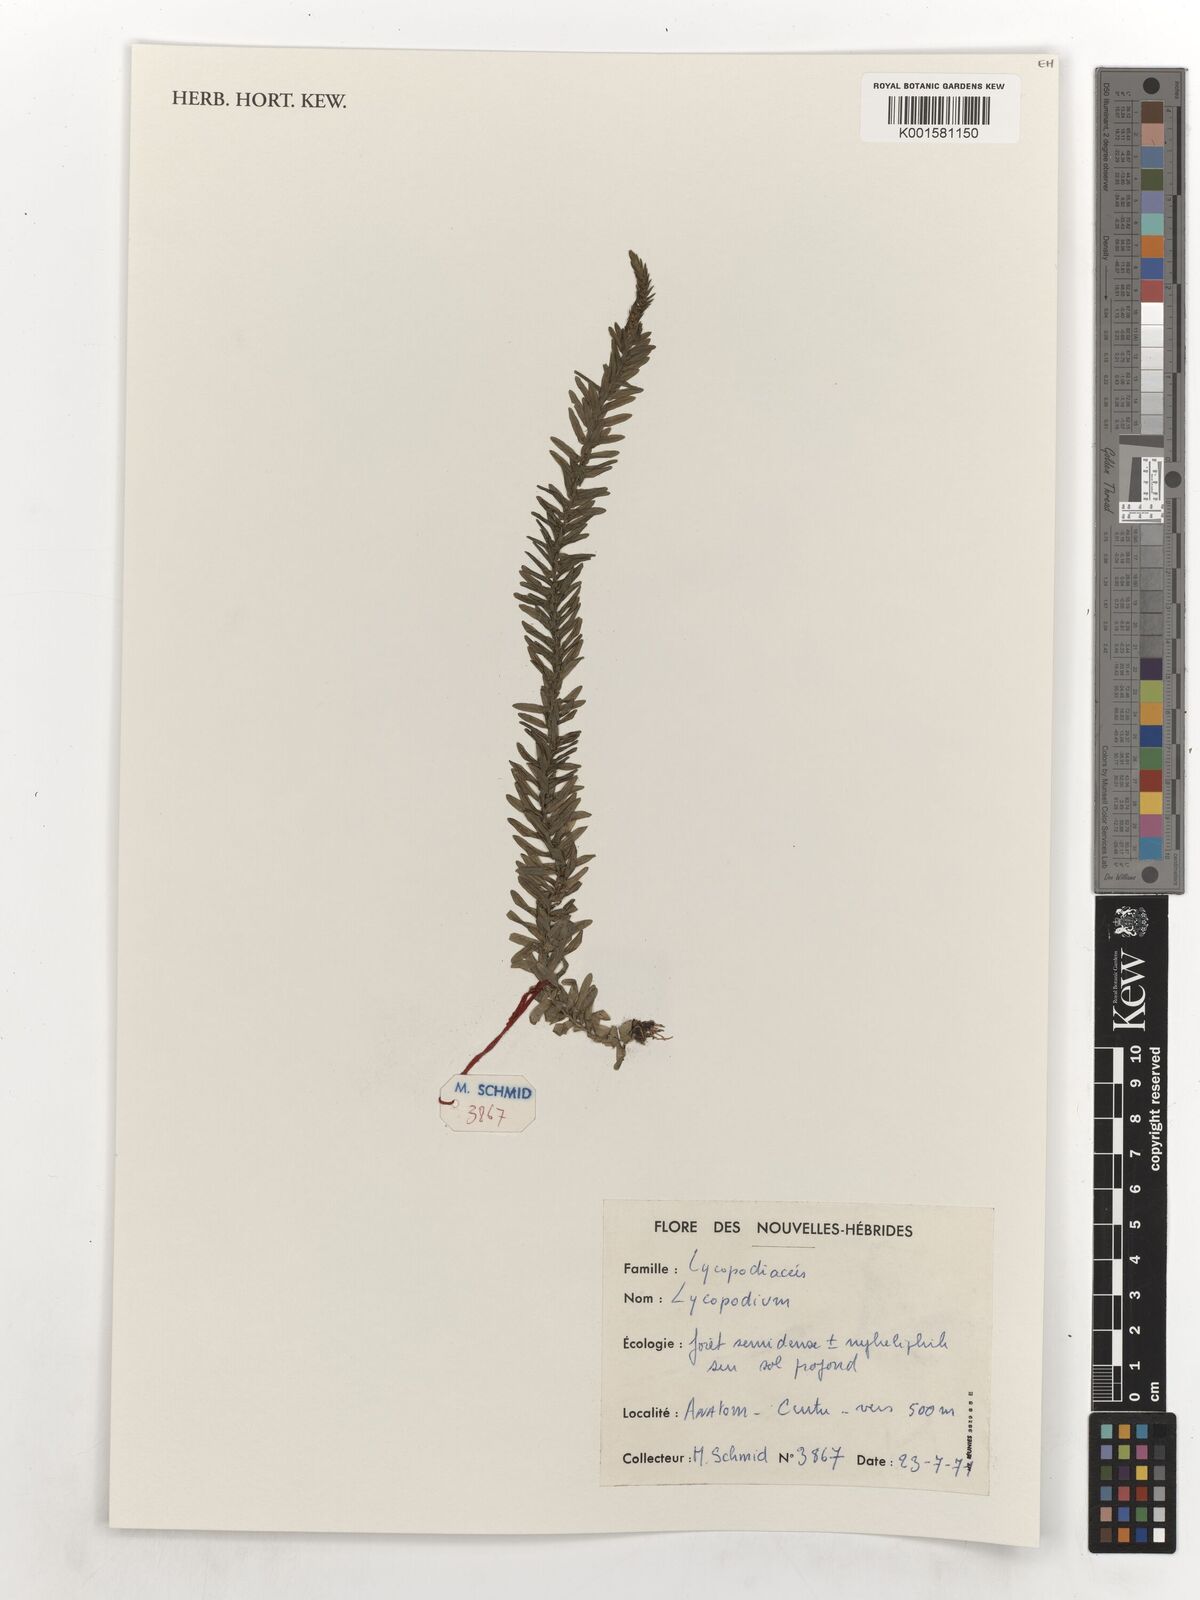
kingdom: Plantae
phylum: Tracheophyta
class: Lycopodiopsida
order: Lycopodiales
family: Lycopodiaceae
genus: Lycopodium
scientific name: Lycopodium
